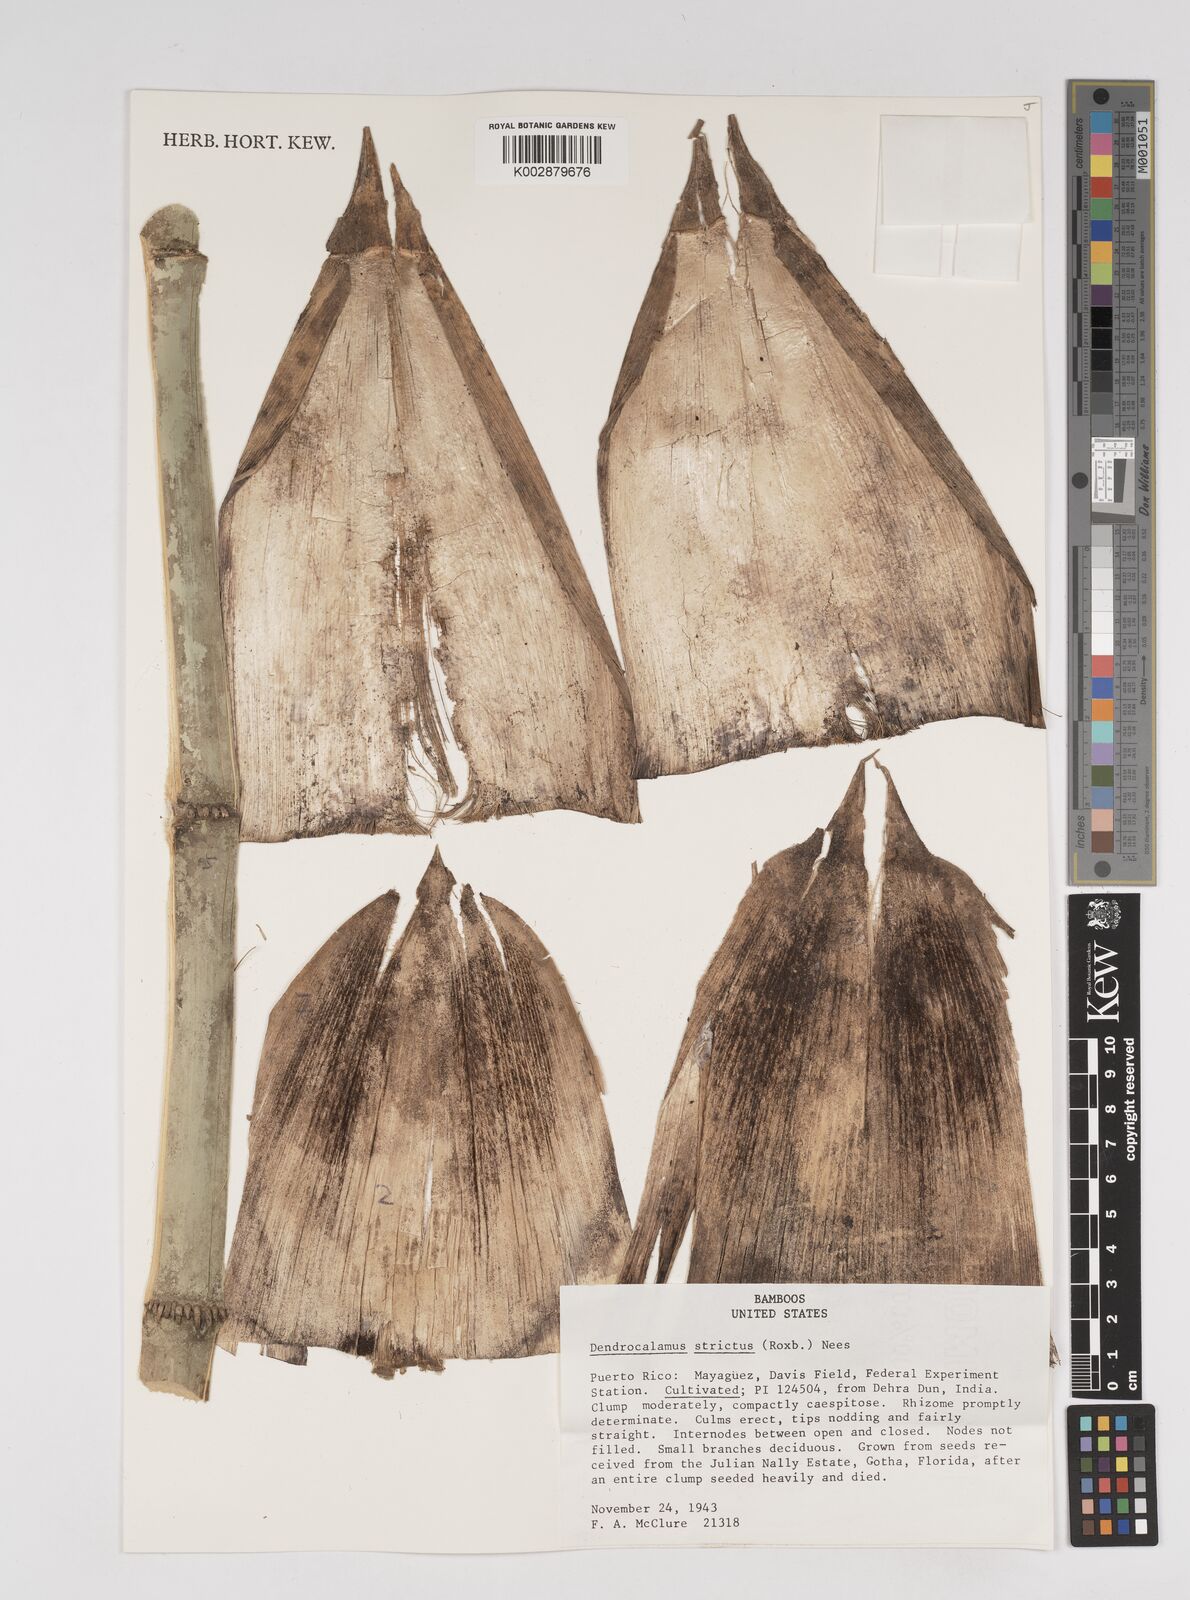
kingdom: Plantae
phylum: Tracheophyta
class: Liliopsida
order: Poales
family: Poaceae
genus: Dendrocalamus
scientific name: Dendrocalamus strictus
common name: Male bamboo
